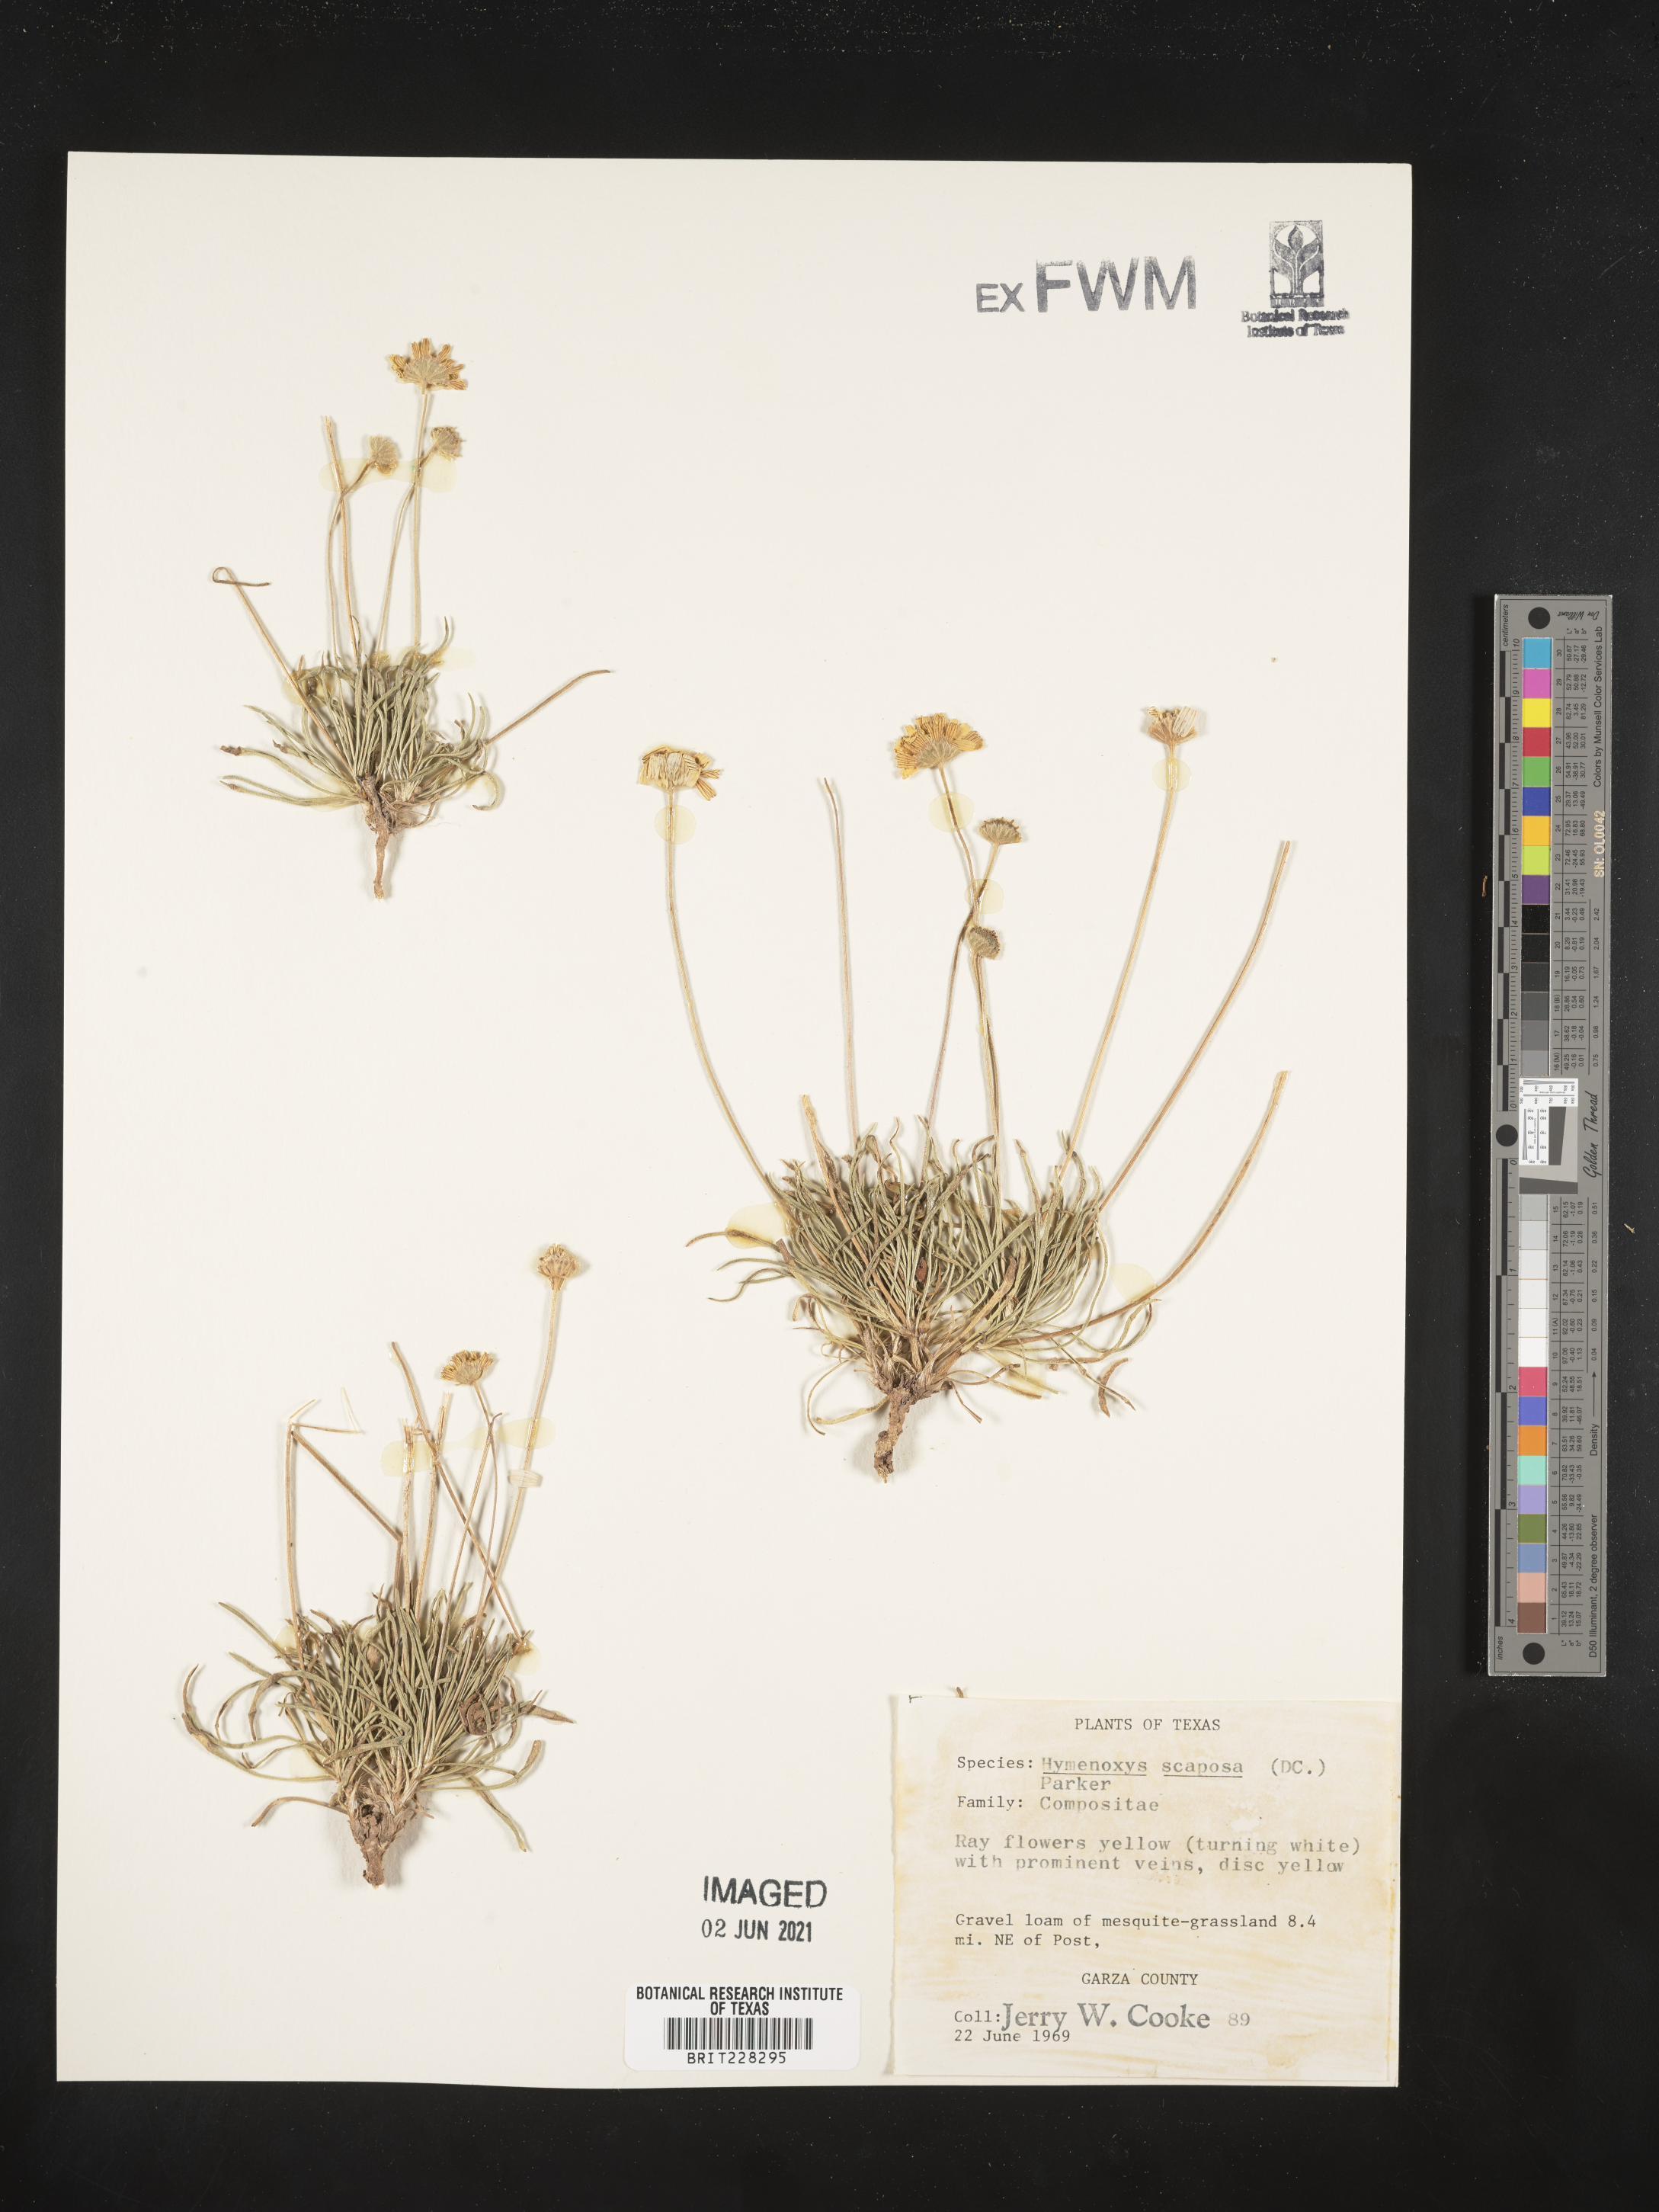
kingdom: Plantae
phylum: Tracheophyta
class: Magnoliopsida
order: Asterales
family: Asteraceae
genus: Tetraneuris
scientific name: Tetraneuris scaposa
